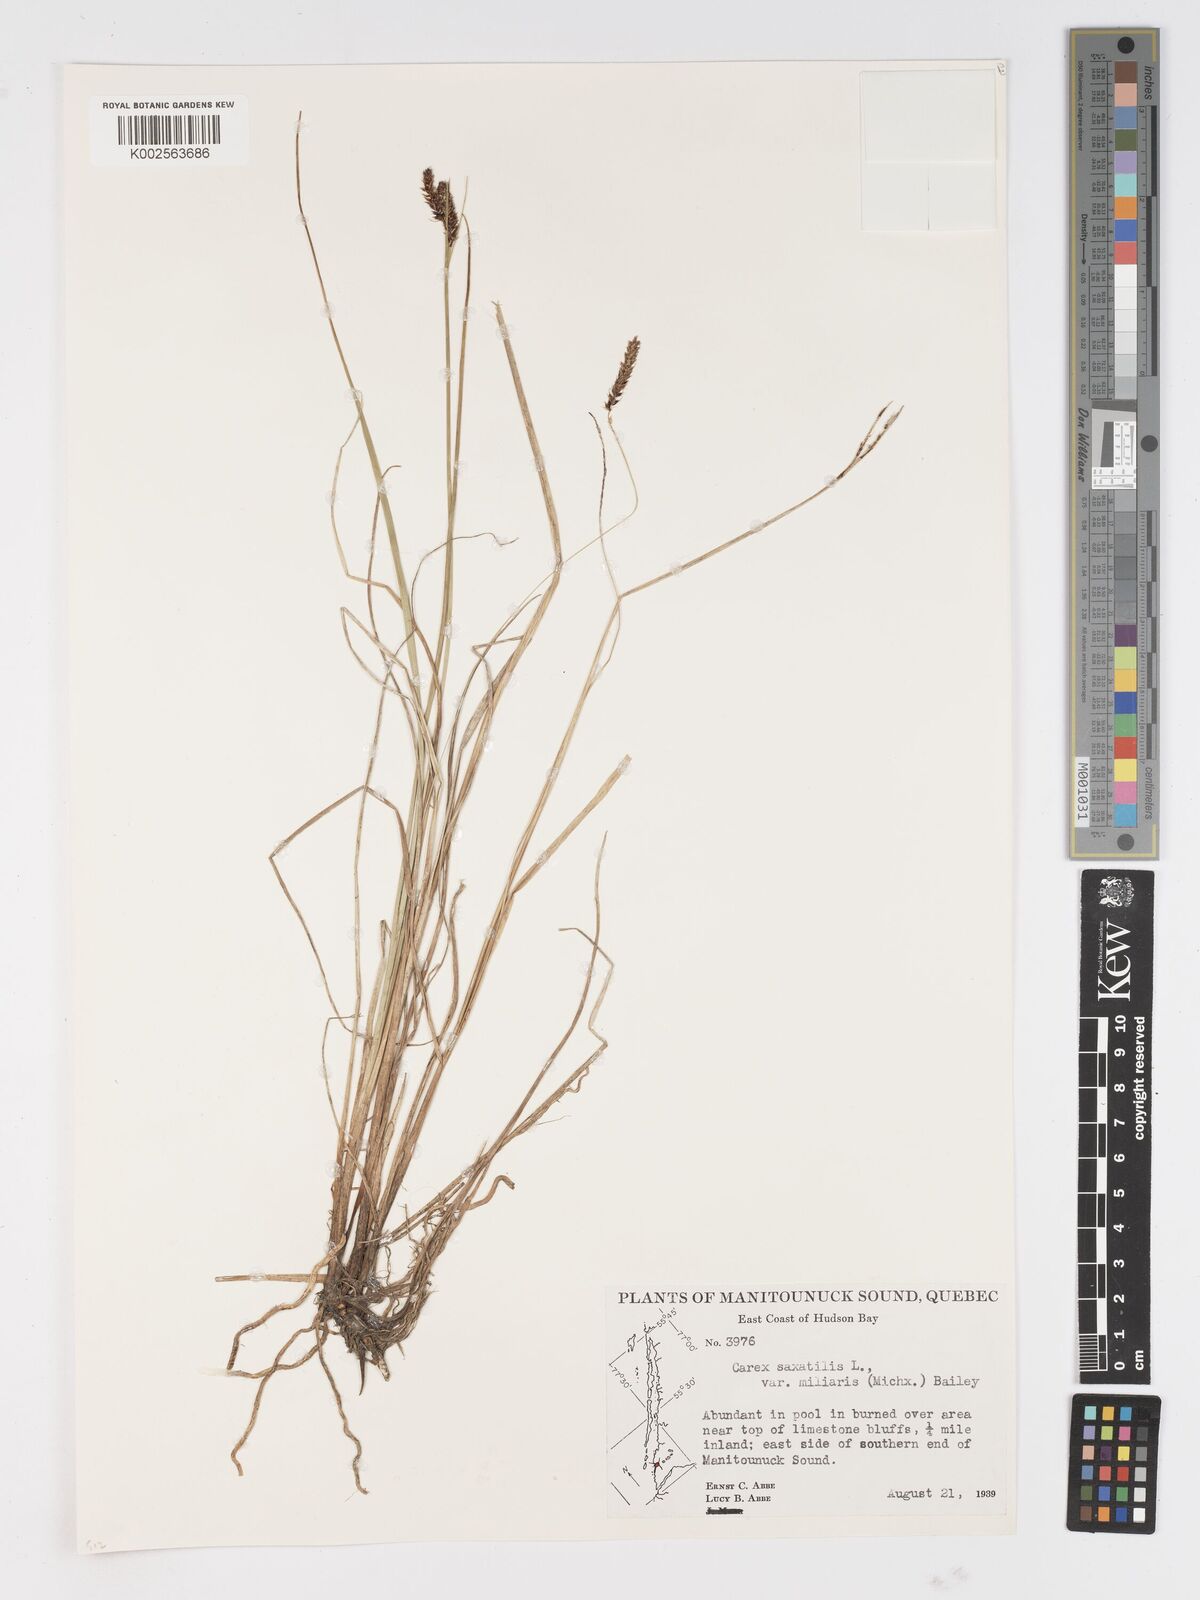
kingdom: Plantae
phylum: Tracheophyta
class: Liliopsida
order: Poales
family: Cyperaceae
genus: Carex
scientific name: Carex miliaris
